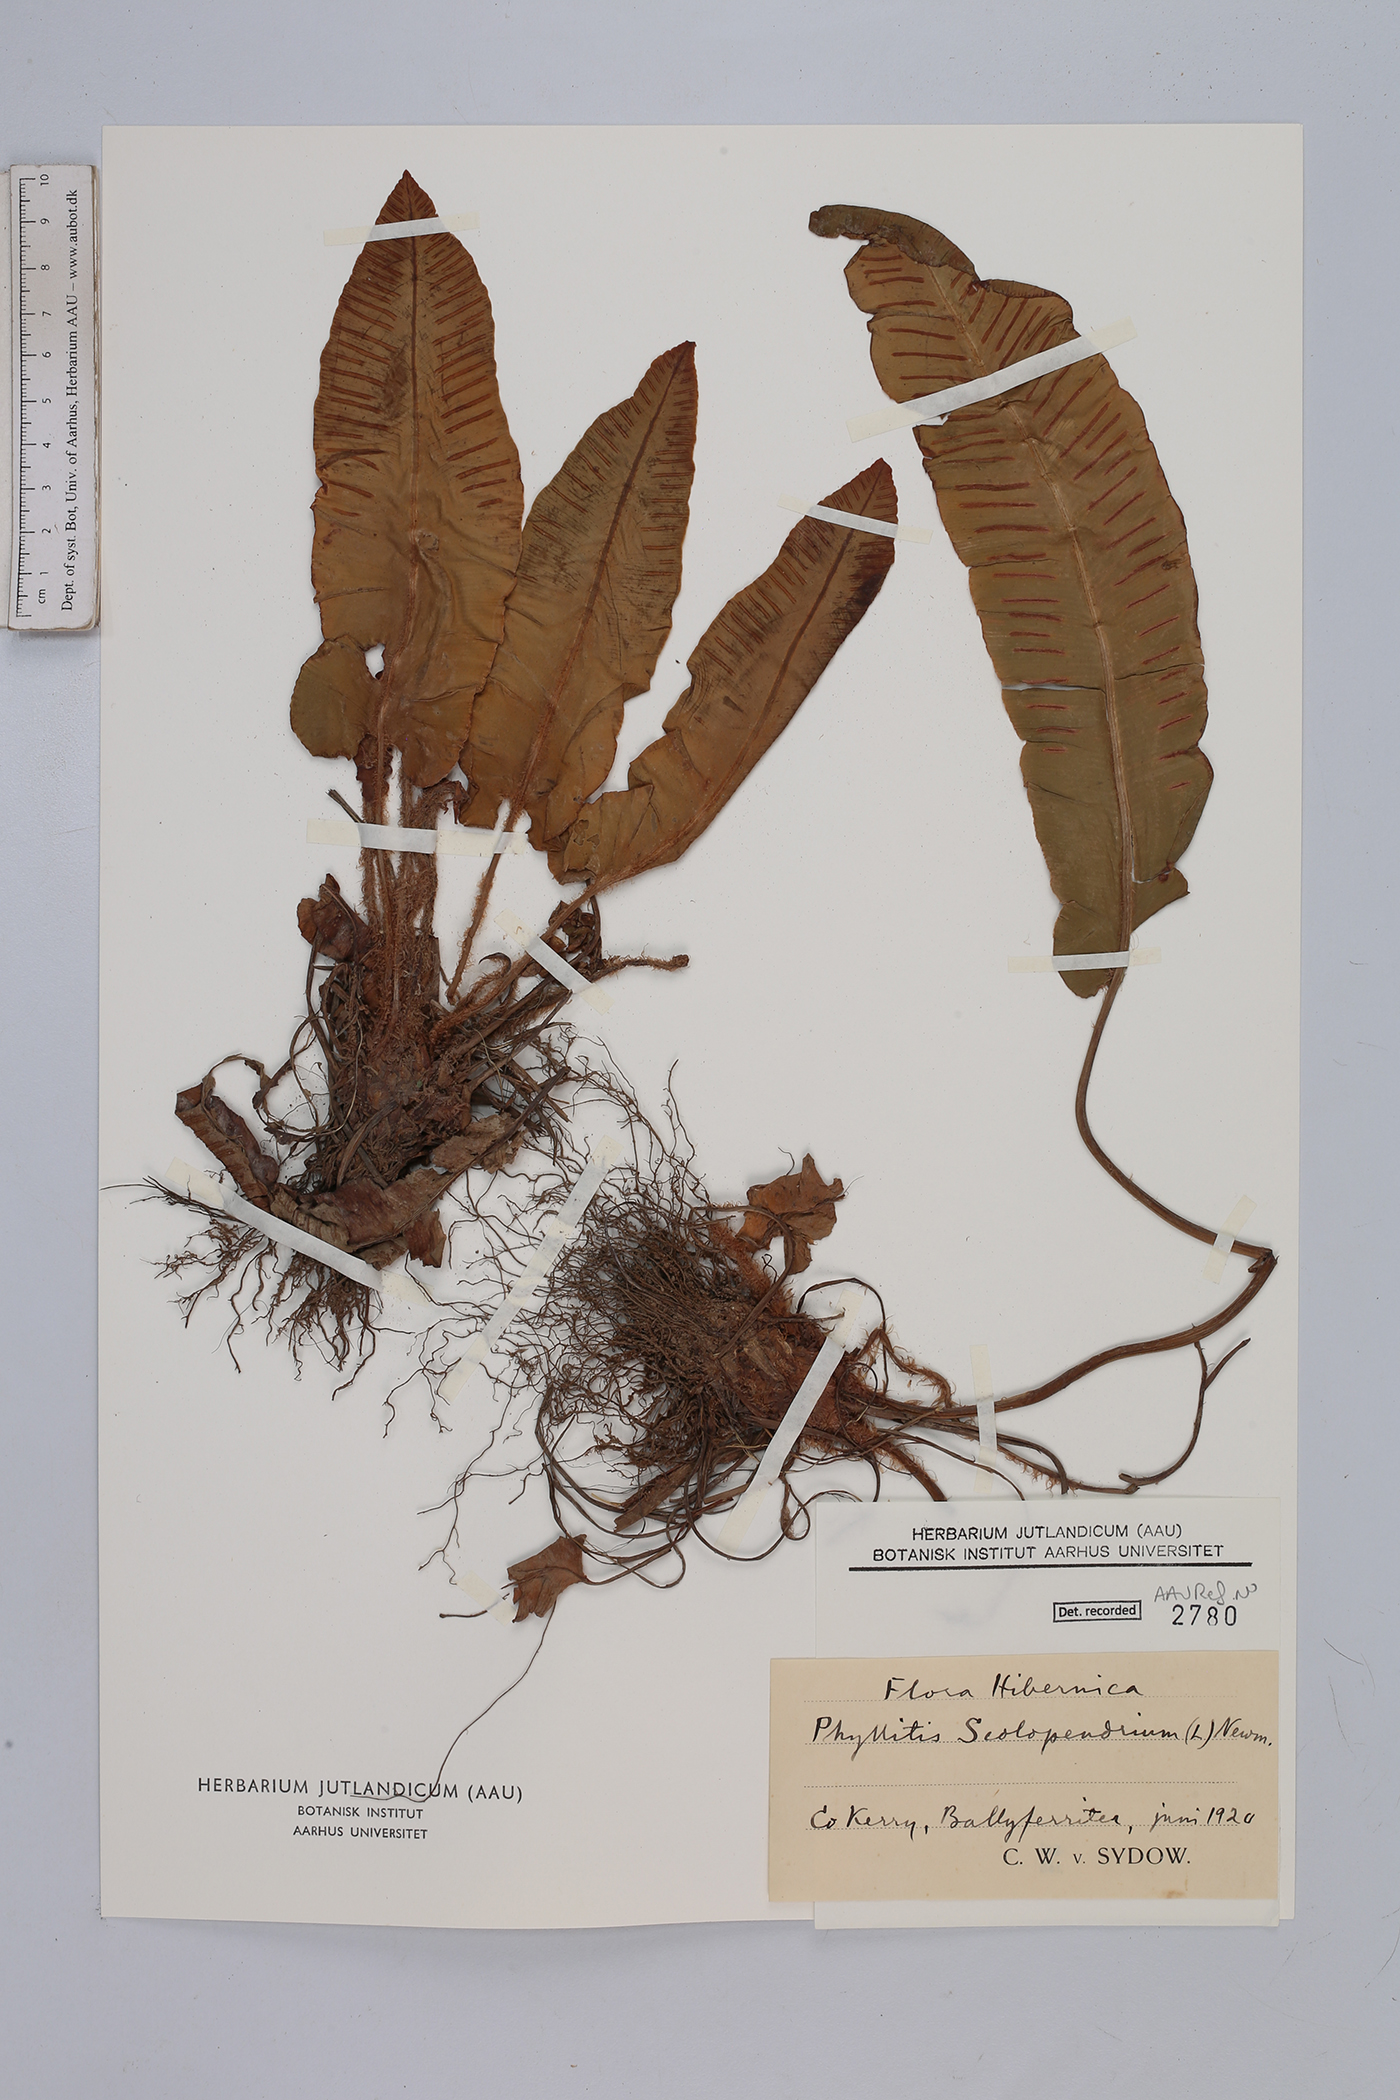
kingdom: Plantae
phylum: Tracheophyta
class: Polypodiopsida
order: Polypodiales
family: Aspleniaceae
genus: Asplenium
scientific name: Asplenium scolopendrium
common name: Hart's-tongue fern
